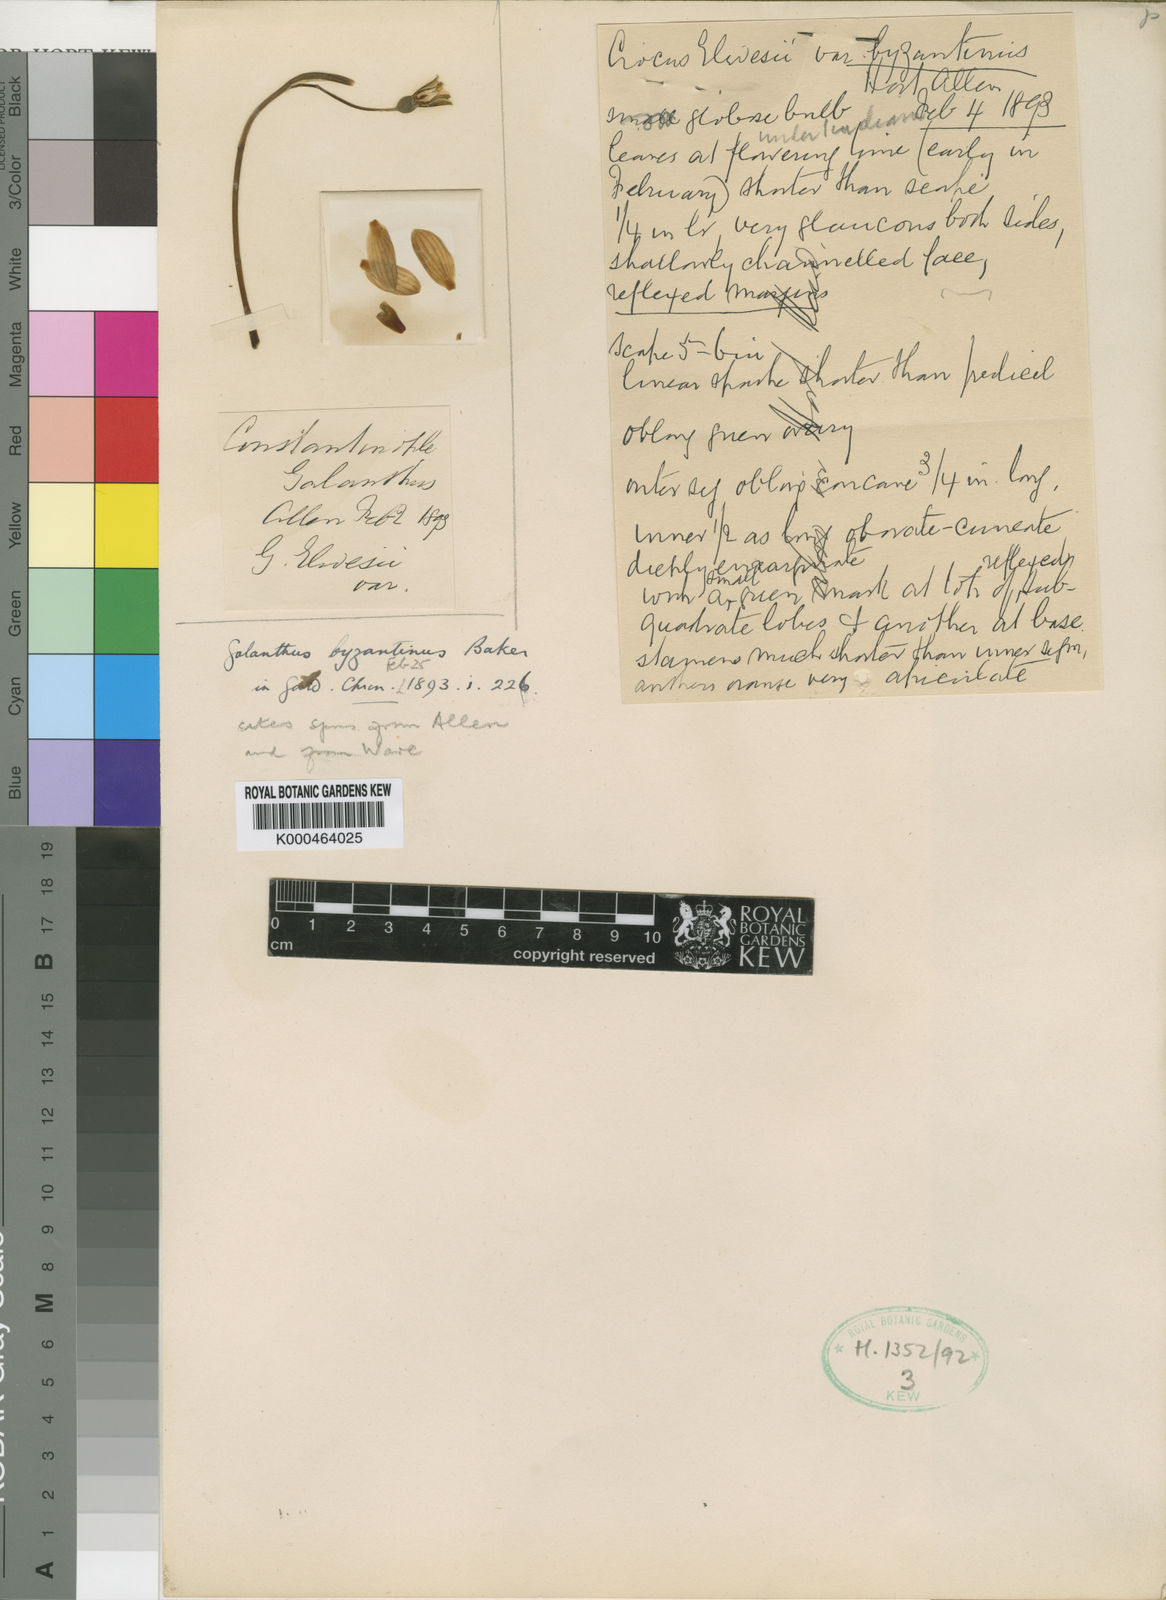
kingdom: Plantae
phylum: Tracheophyta
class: Liliopsida
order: Asparagales
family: Amaryllidaceae
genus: Galanthus
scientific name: Galanthus plicatus
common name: Pleated snowdrop
